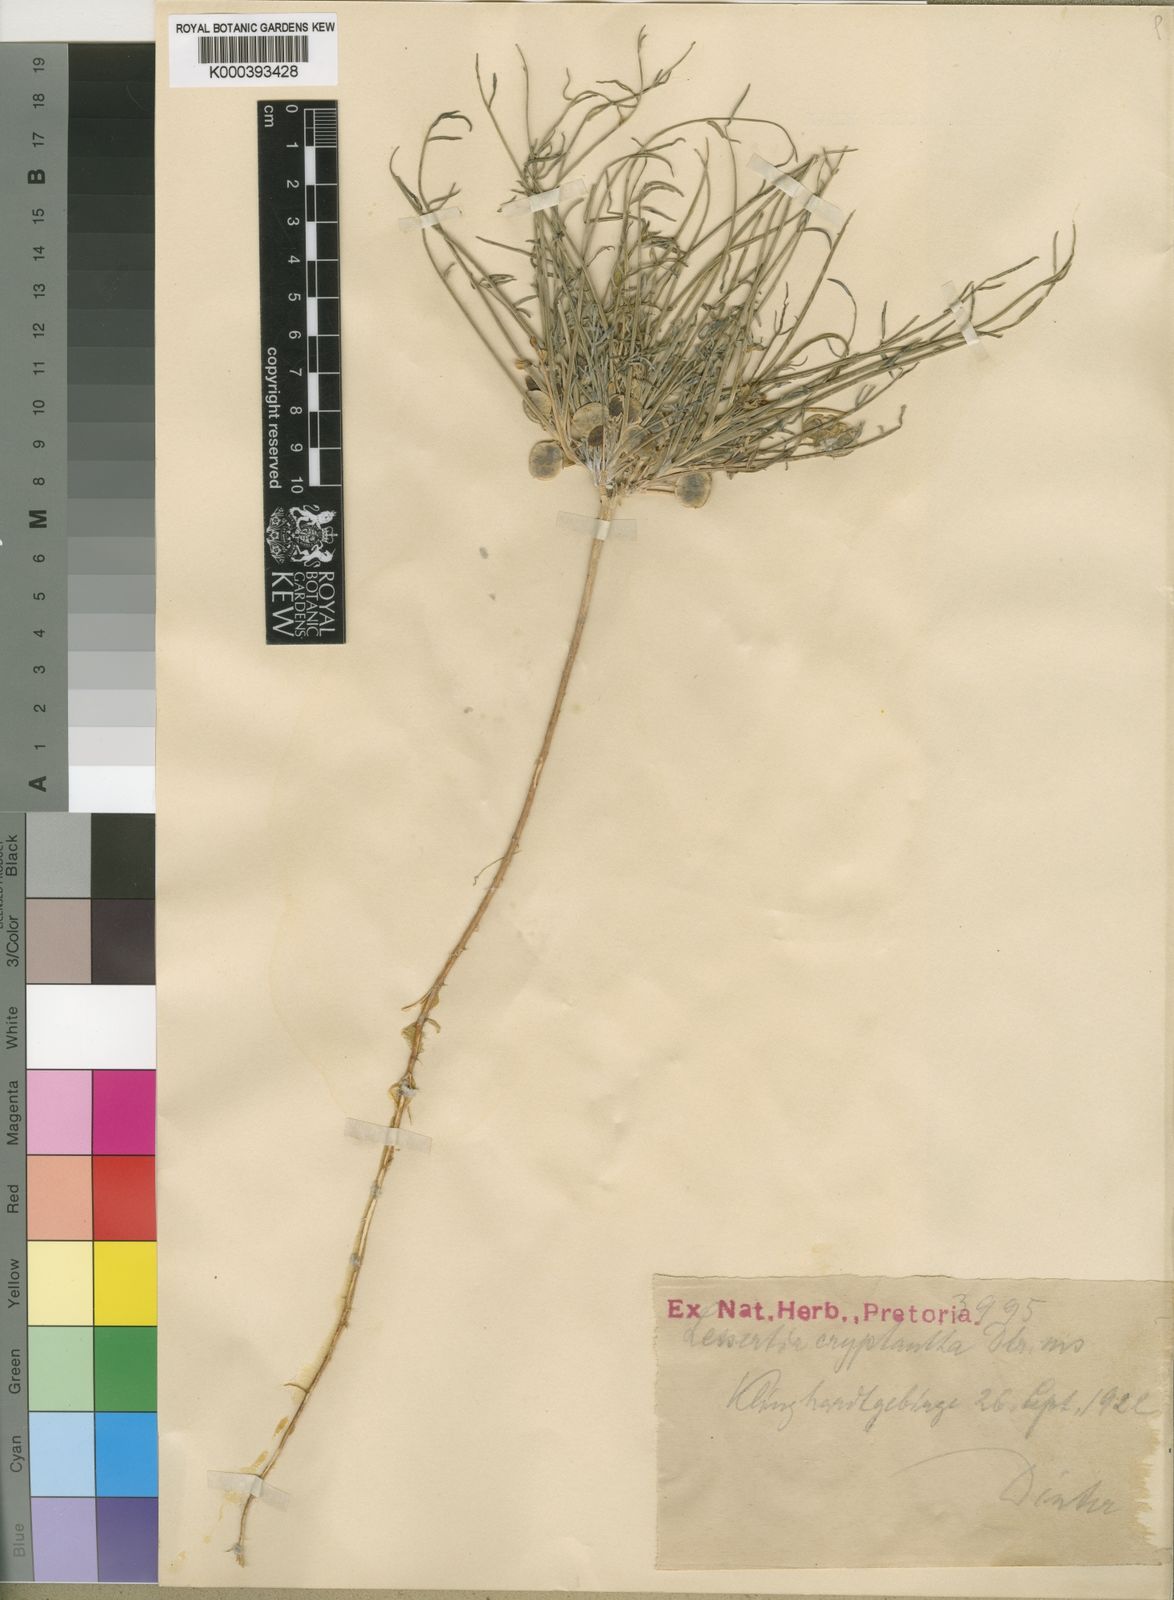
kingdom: Plantae
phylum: Tracheophyta
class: Magnoliopsida
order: Fabales
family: Fabaceae
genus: Lessertia
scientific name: Lessertia cryptantha
